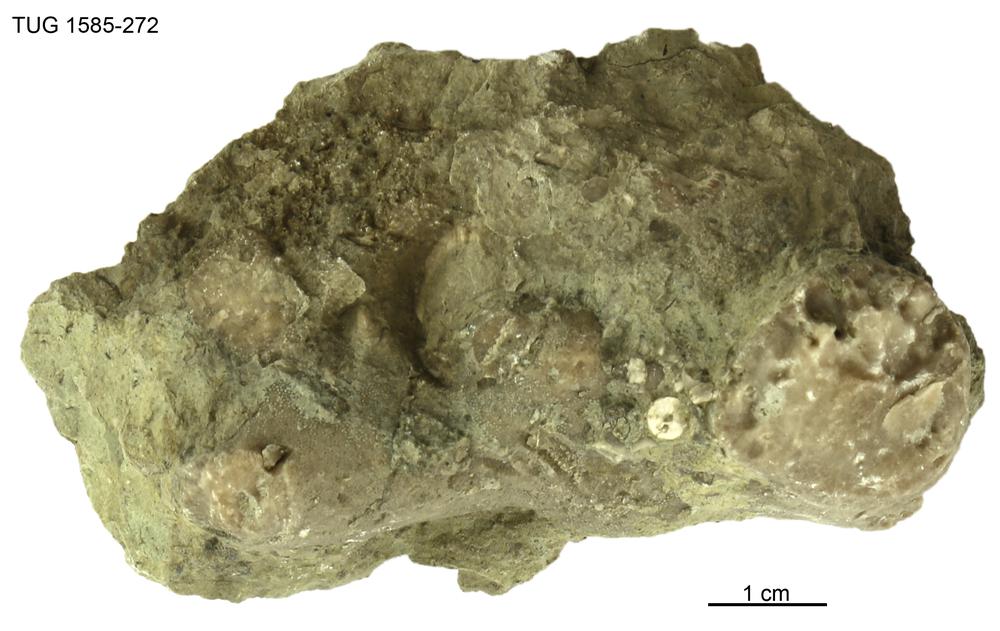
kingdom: Animalia
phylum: Bryozoa
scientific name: Bryozoa
